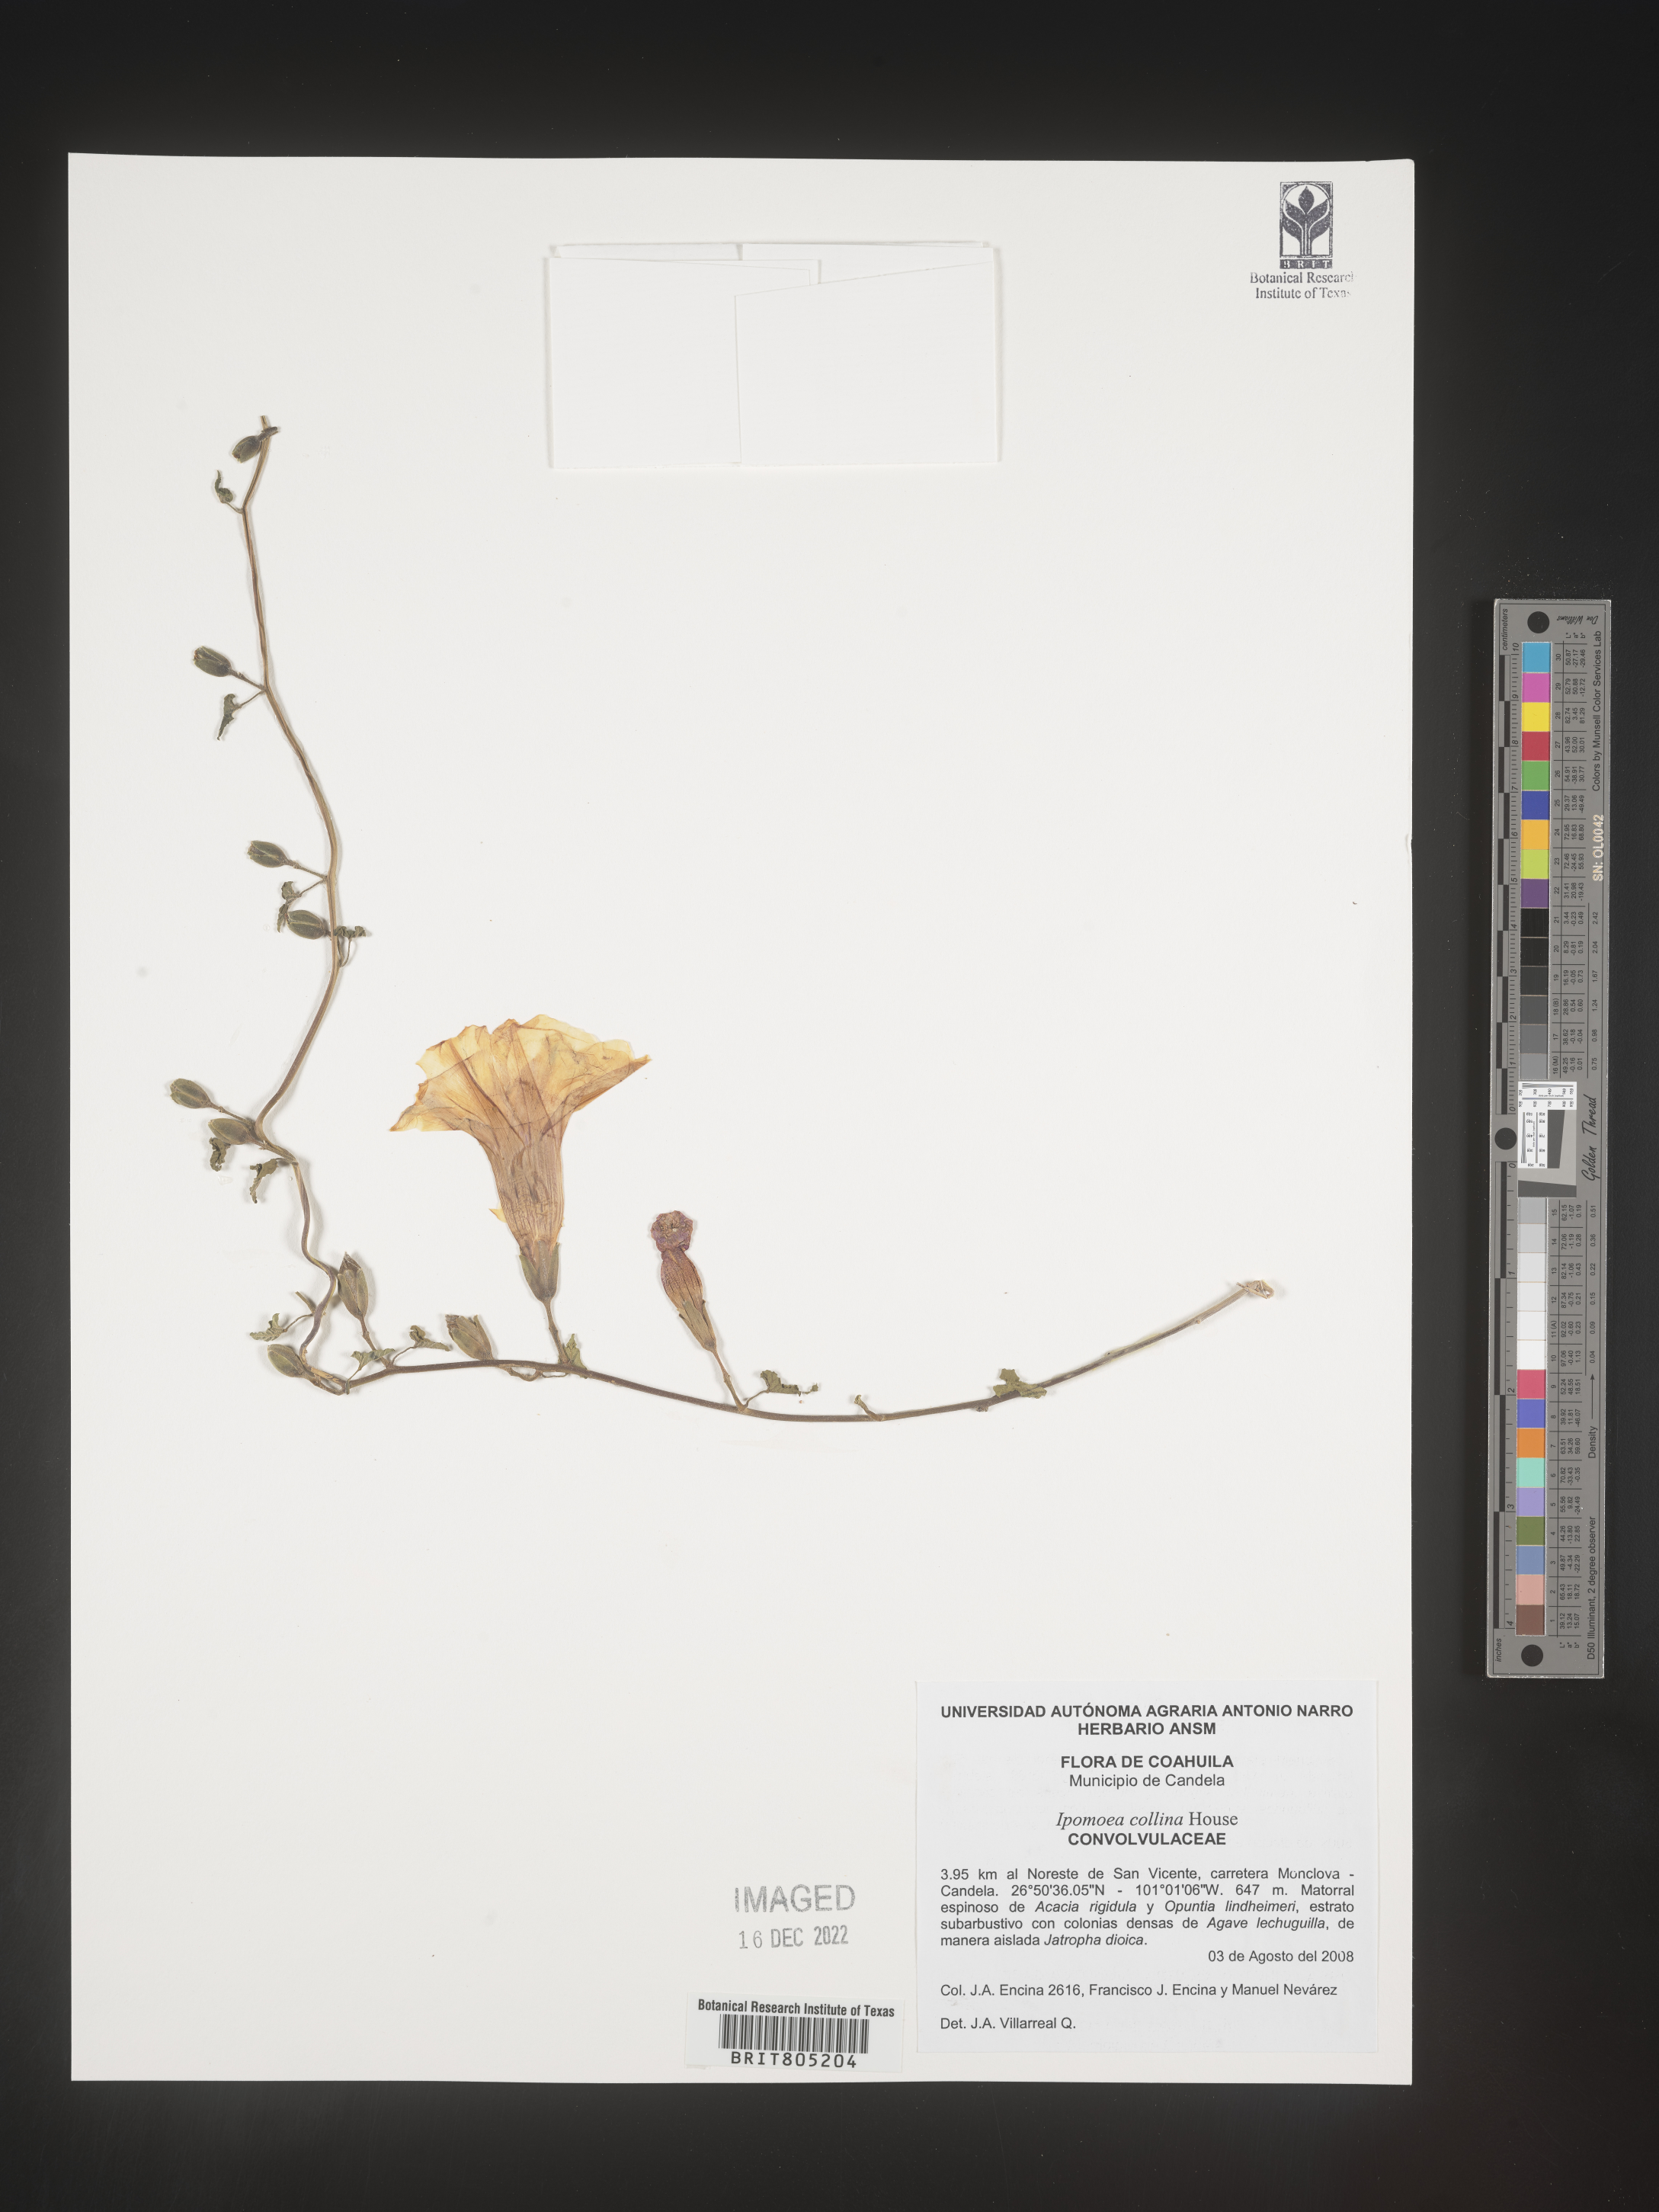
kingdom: Plantae
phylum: Tracheophyta
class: Magnoliopsida
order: Solanales
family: Convolvulaceae
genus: Ipomoea
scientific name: Ipomoea
